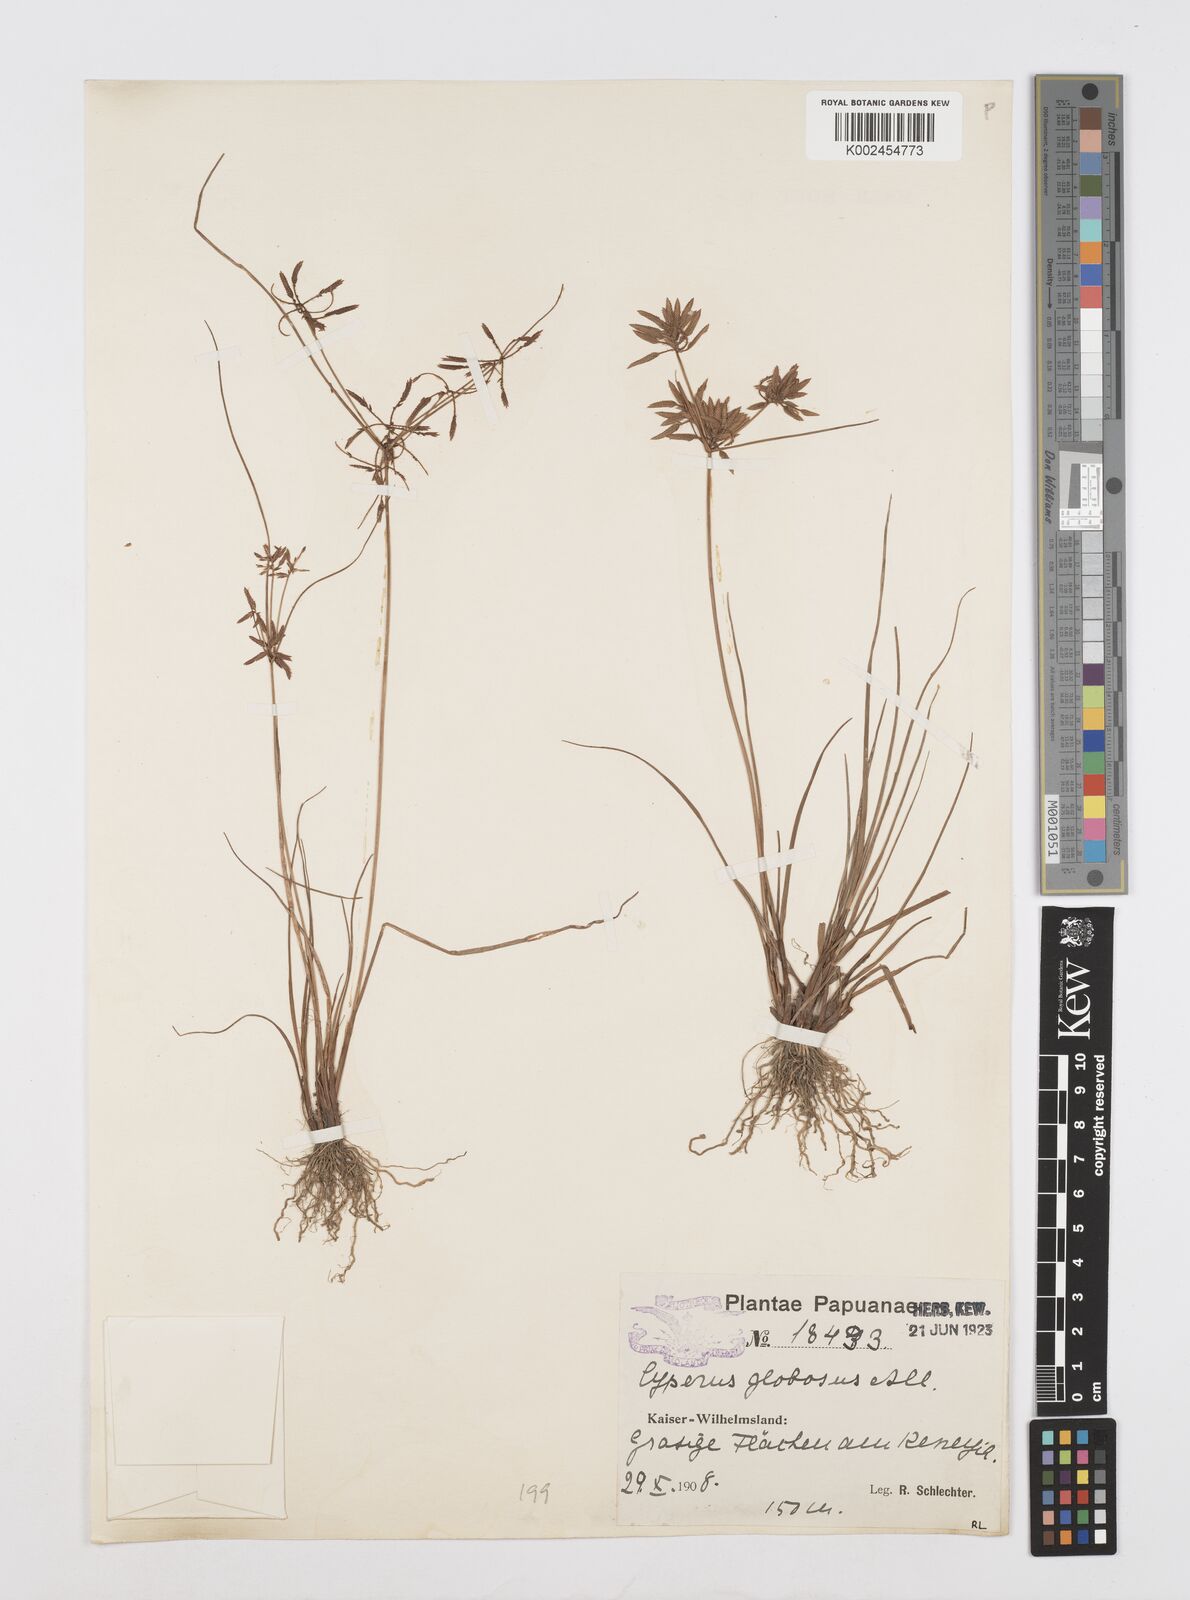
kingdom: Plantae
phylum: Tracheophyta
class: Liliopsida
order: Poales
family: Cyperaceae
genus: Cyperus
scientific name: Cyperus flavidus
